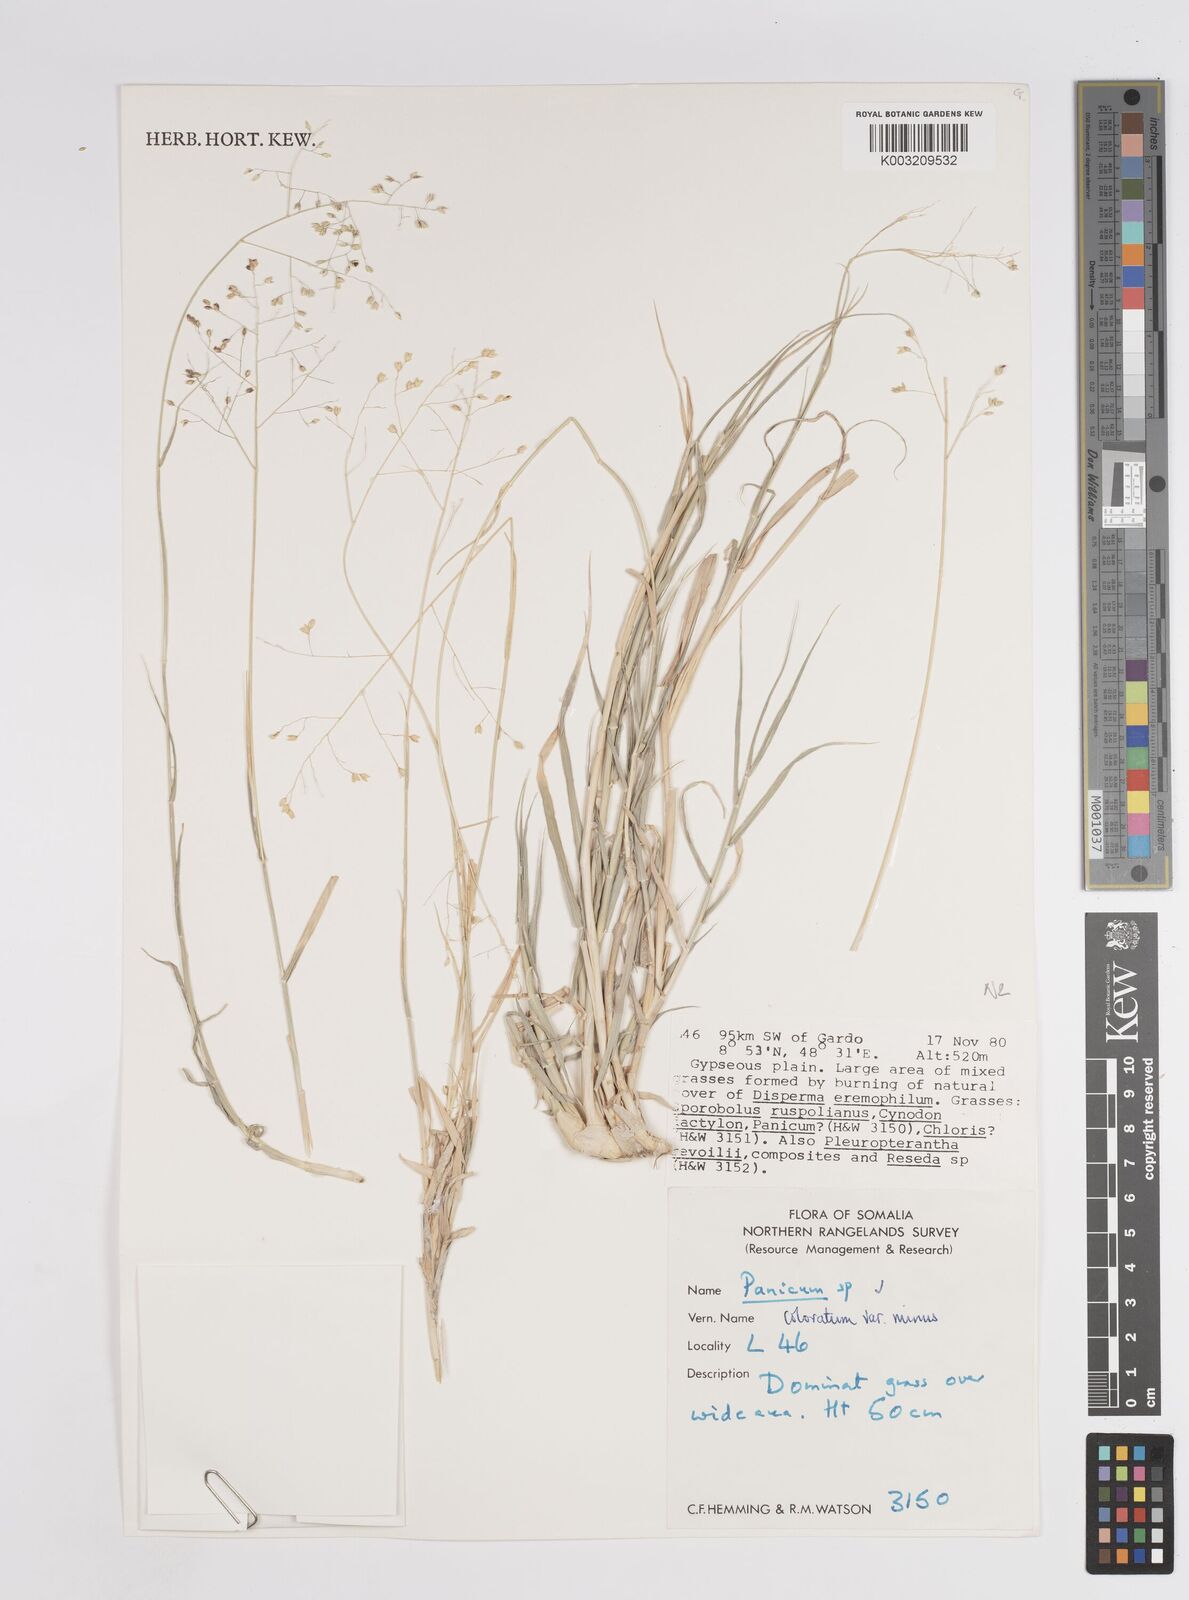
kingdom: Plantae
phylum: Tracheophyta
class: Liliopsida
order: Poales
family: Poaceae
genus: Panicum
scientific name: Panicum coloratum
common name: Kleingrass
